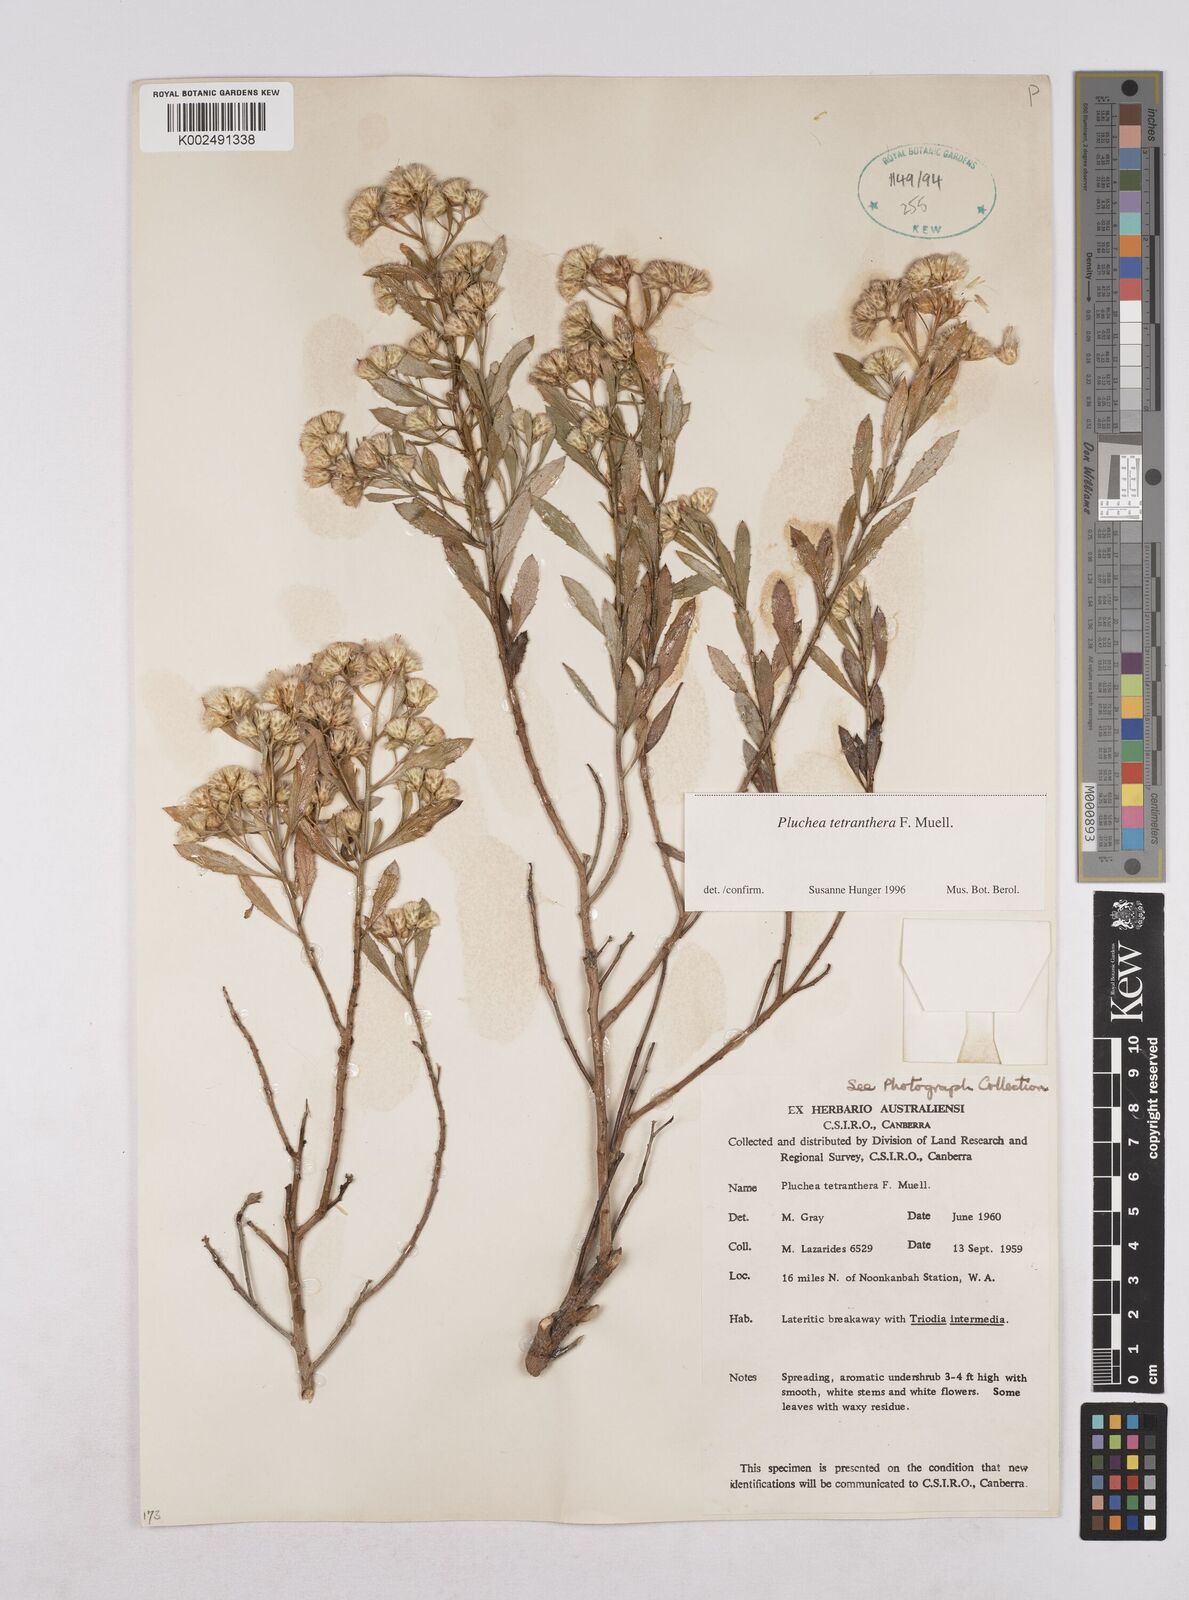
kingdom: Plantae
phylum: Tracheophyta
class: Magnoliopsida
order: Asterales
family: Asteraceae
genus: Pluchea
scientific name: Pluchea tetranthera
